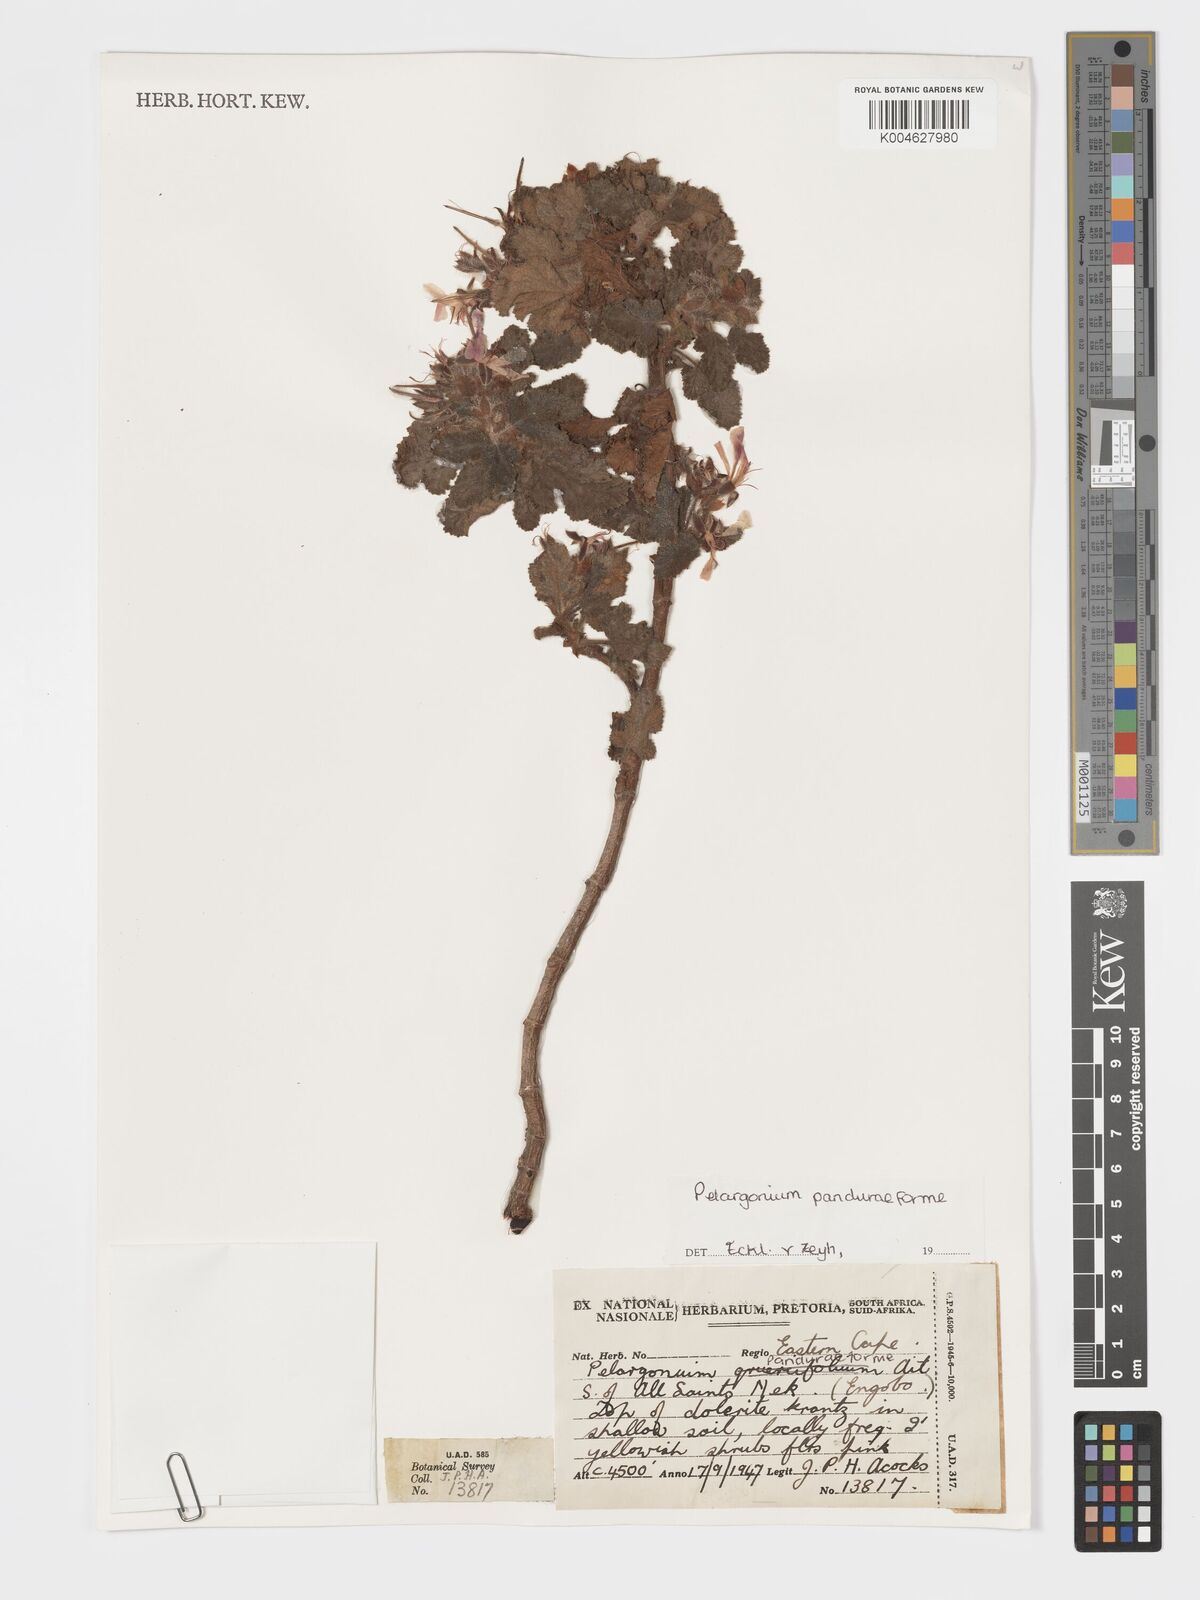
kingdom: Plantae
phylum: Tracheophyta
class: Magnoliopsida
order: Geraniales
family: Geraniaceae
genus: Pelargonium
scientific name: Pelargonium panduriforme
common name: Oakleaf garden geranium
